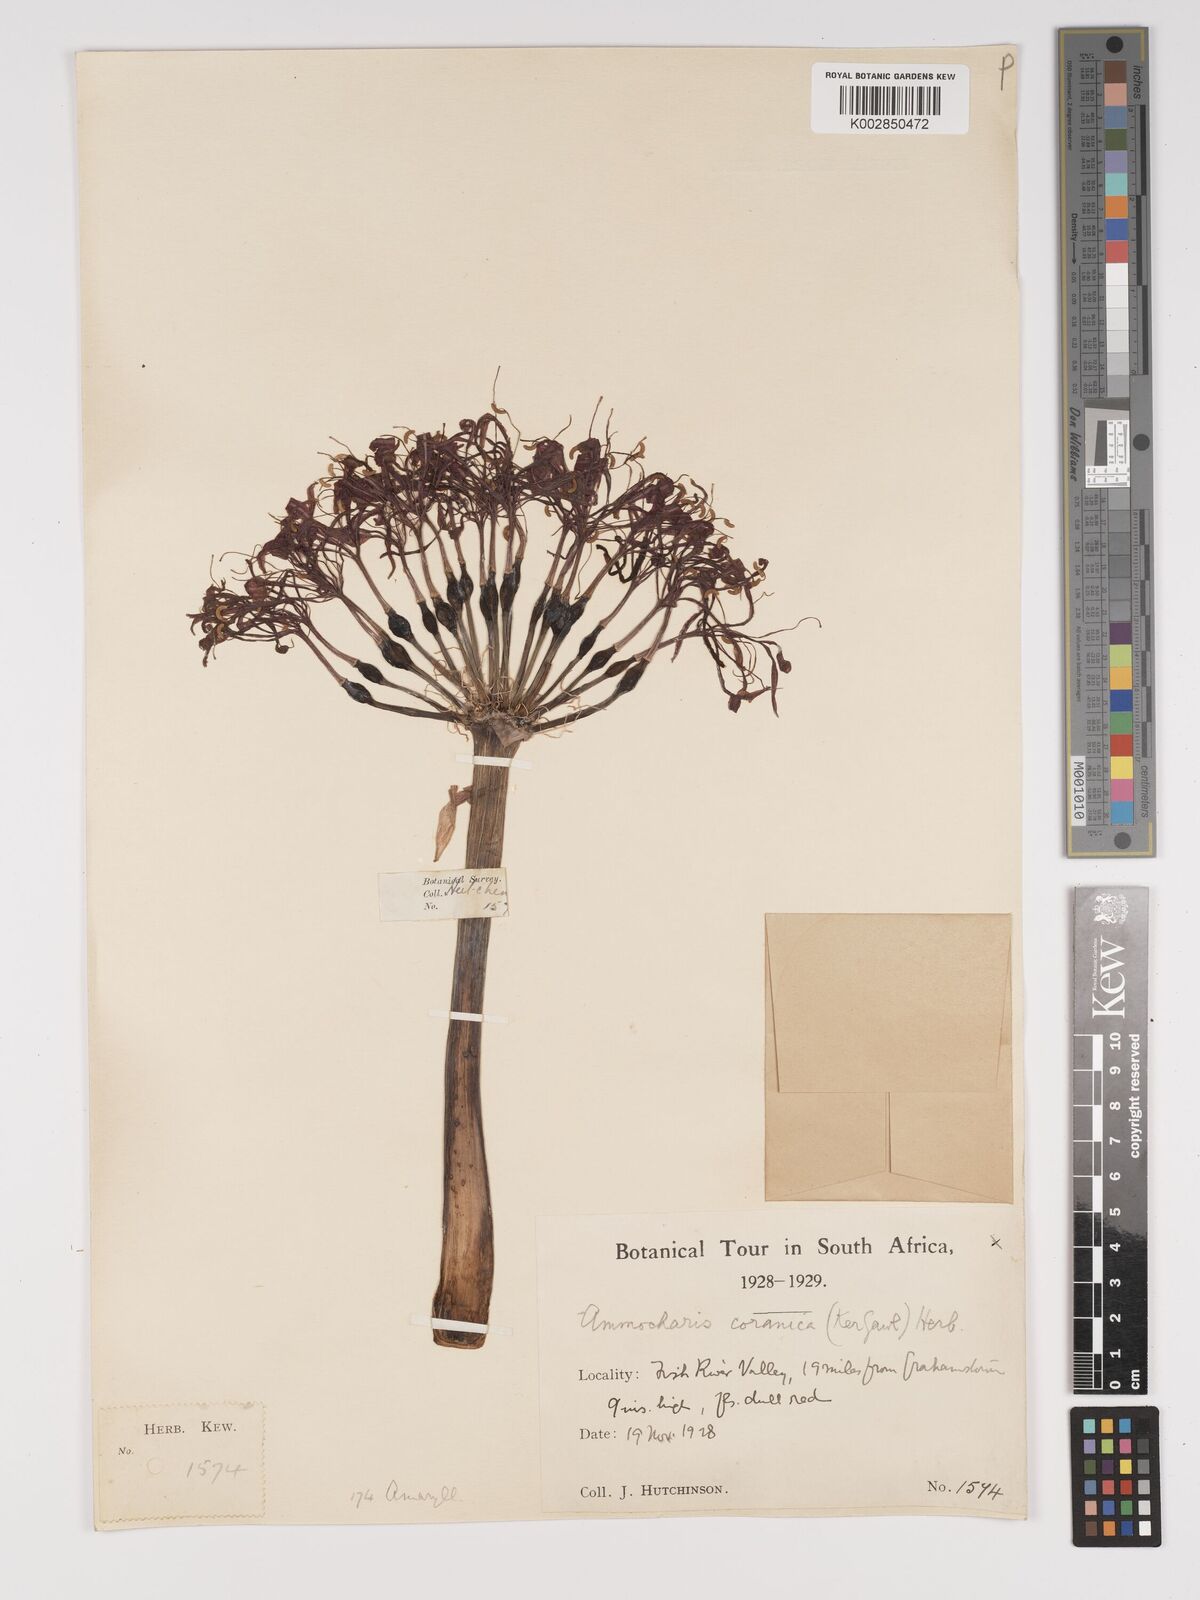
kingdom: Plantae
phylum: Tracheophyta
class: Liliopsida
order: Asparagales
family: Amaryllidaceae
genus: Ammocharis
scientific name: Ammocharis coranica
